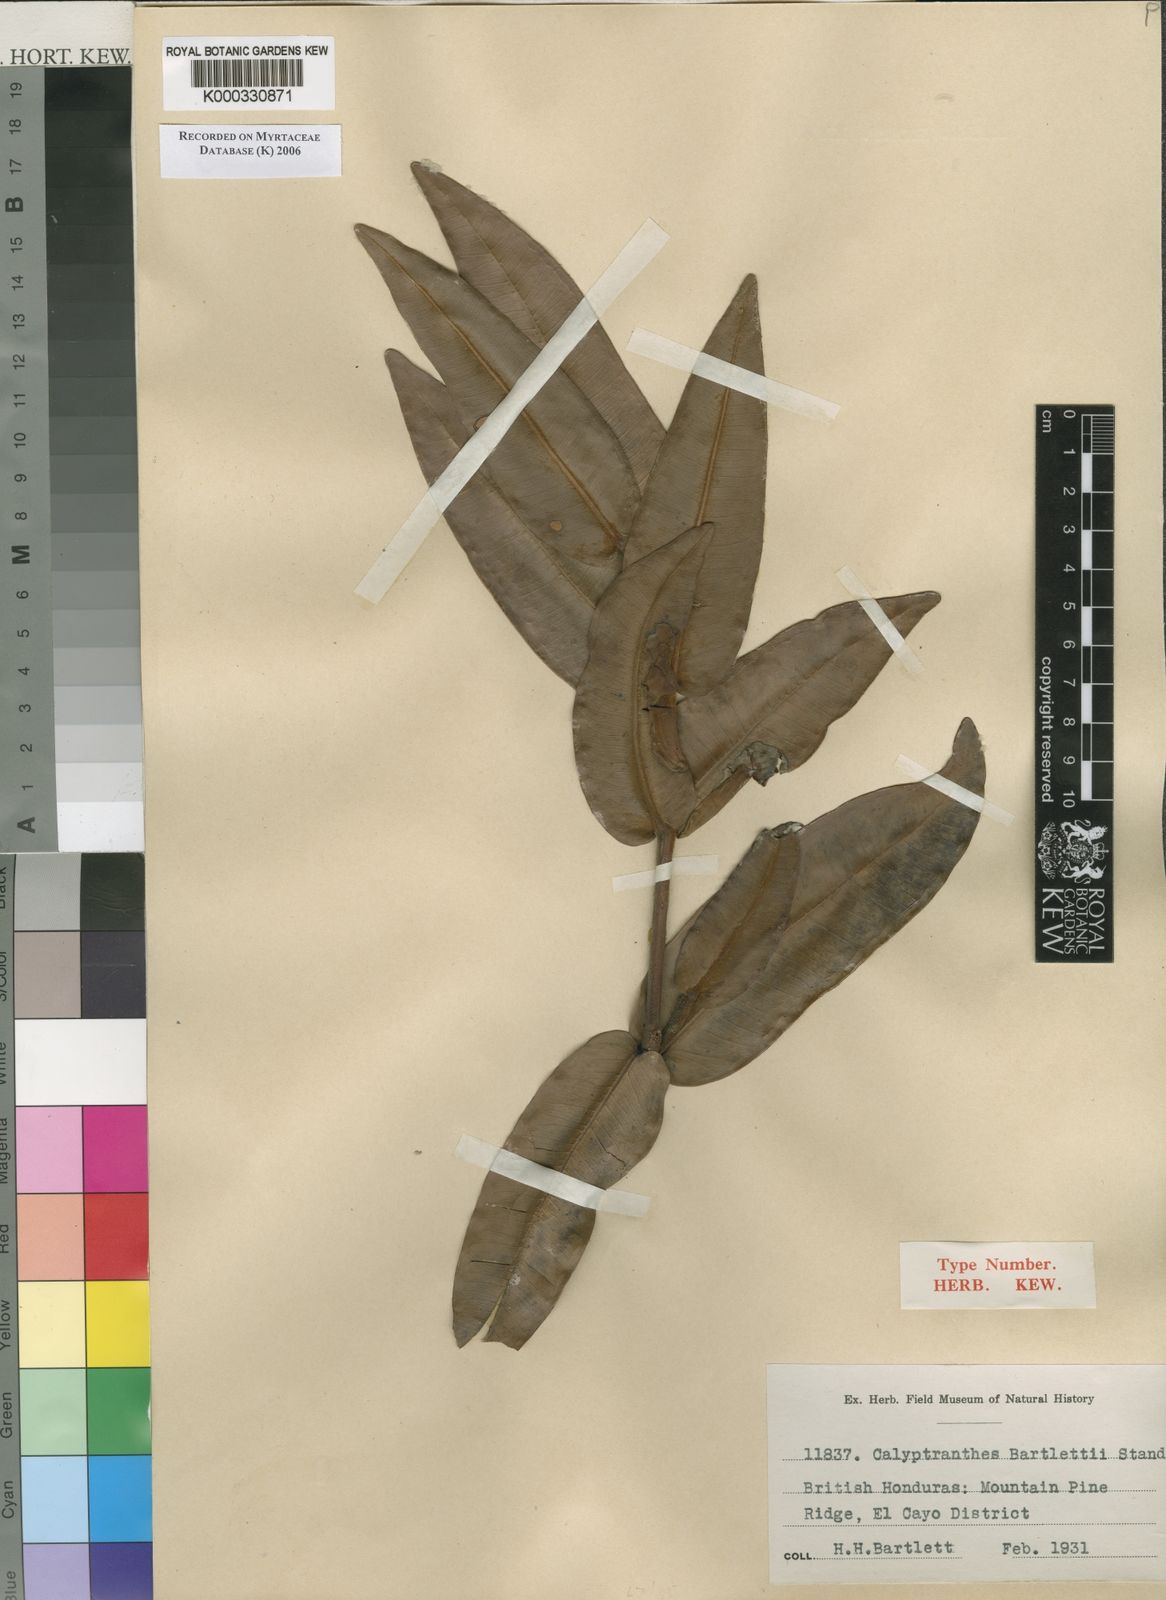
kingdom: Plantae
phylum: Tracheophyta
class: Magnoliopsida
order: Myrtales
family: Myrtaceae
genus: Myrcia
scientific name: Myrcia bartlettii
